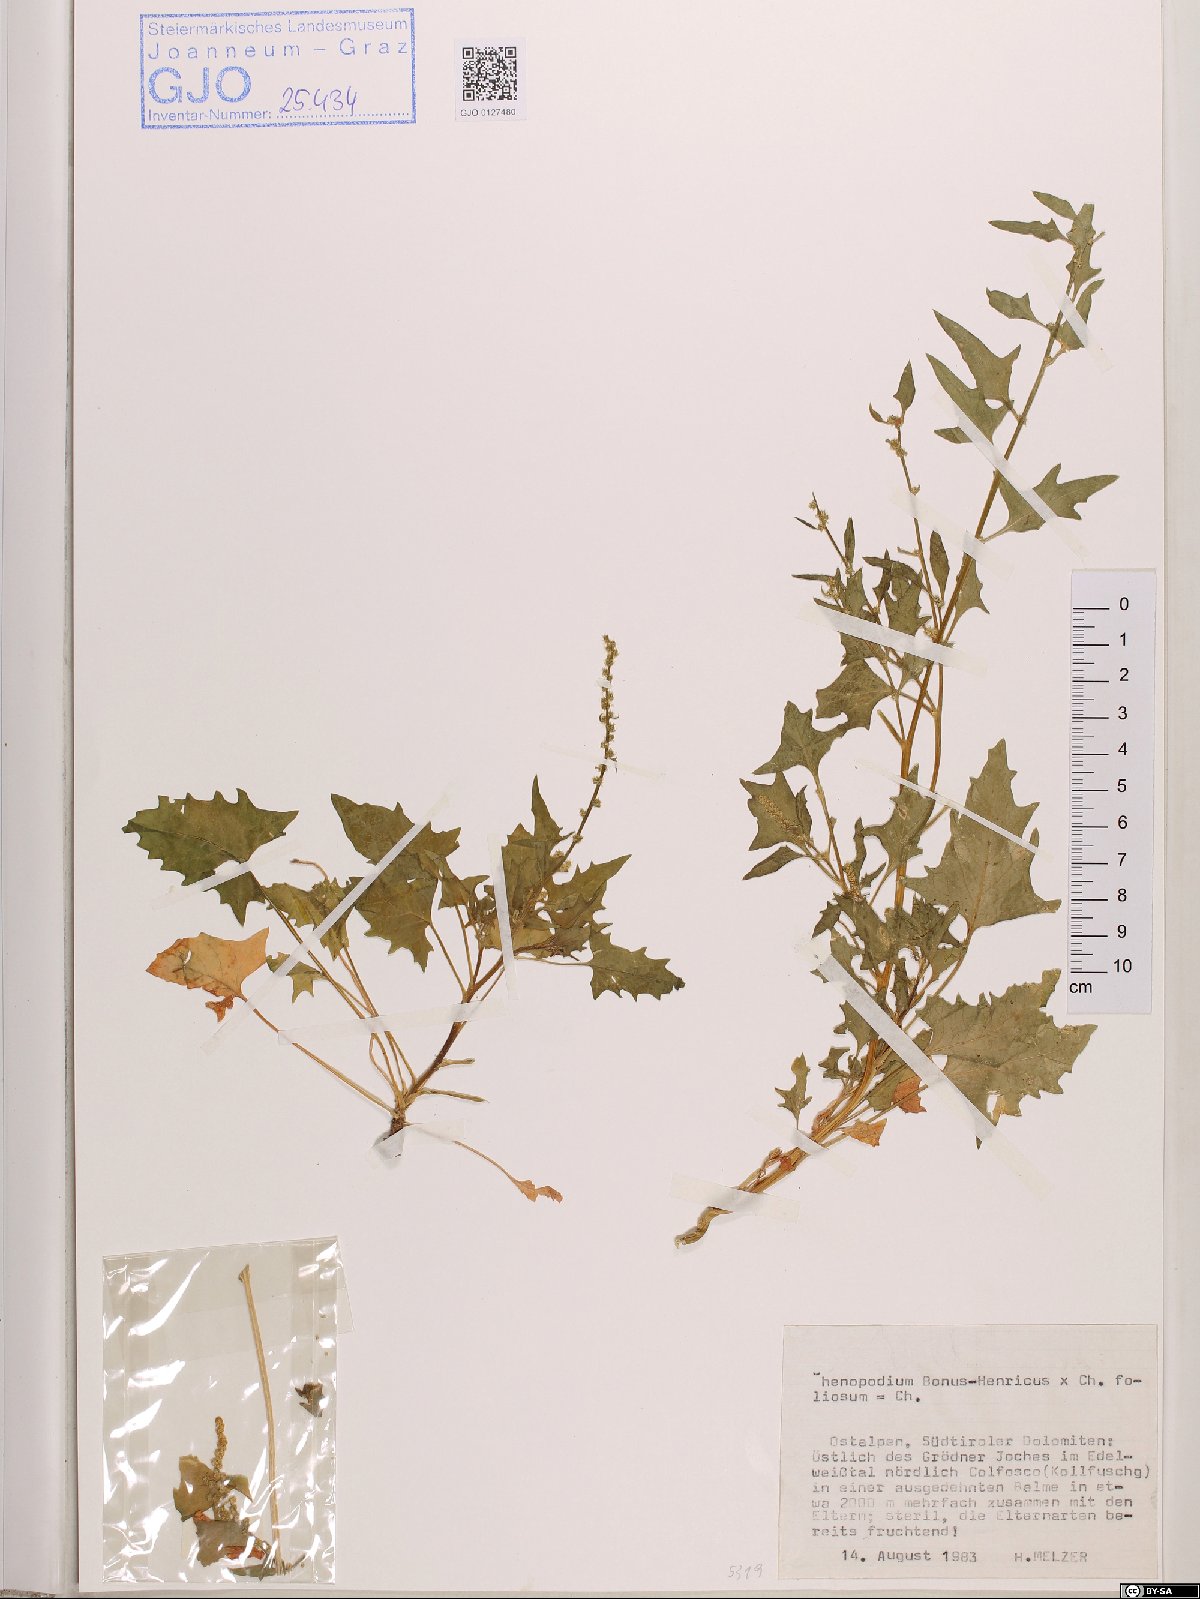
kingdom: Plantae
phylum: Tracheophyta
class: Magnoliopsida
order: Caryophyllales
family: Amaranthaceae
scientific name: Amaranthaceae
